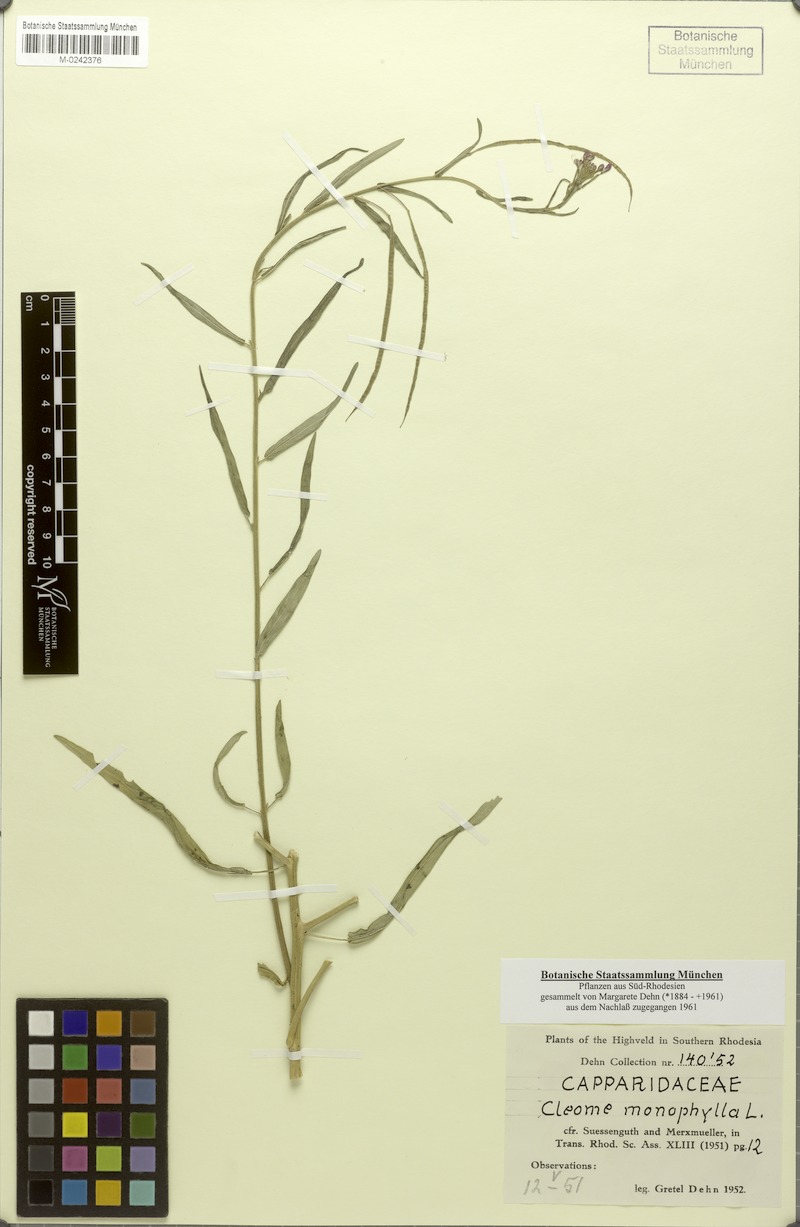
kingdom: Plantae
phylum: Tracheophyta
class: Magnoliopsida
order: Brassicales
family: Cleomaceae
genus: Sieruela
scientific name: Sieruela monophylla
